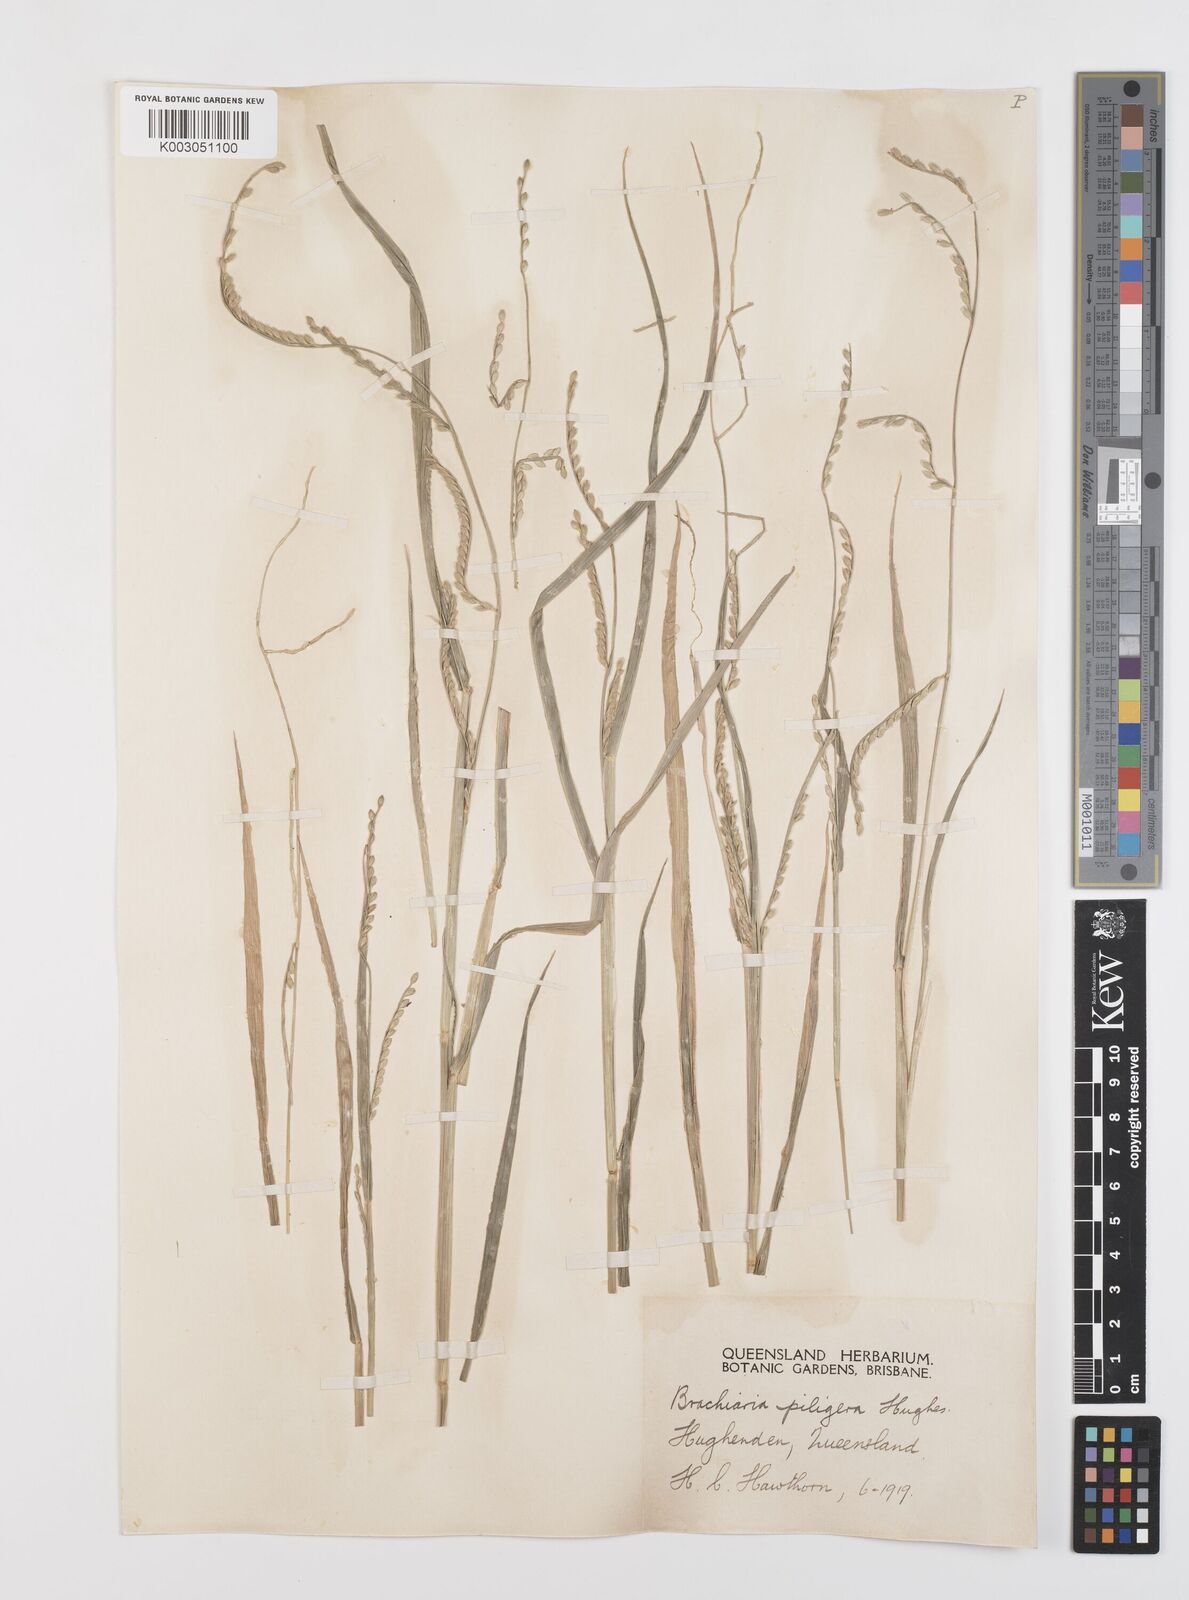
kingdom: Plantae
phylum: Tracheophyta
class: Liliopsida
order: Poales
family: Poaceae
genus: Urochloa
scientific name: Urochloa piligera
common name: Wattle signalgrass
